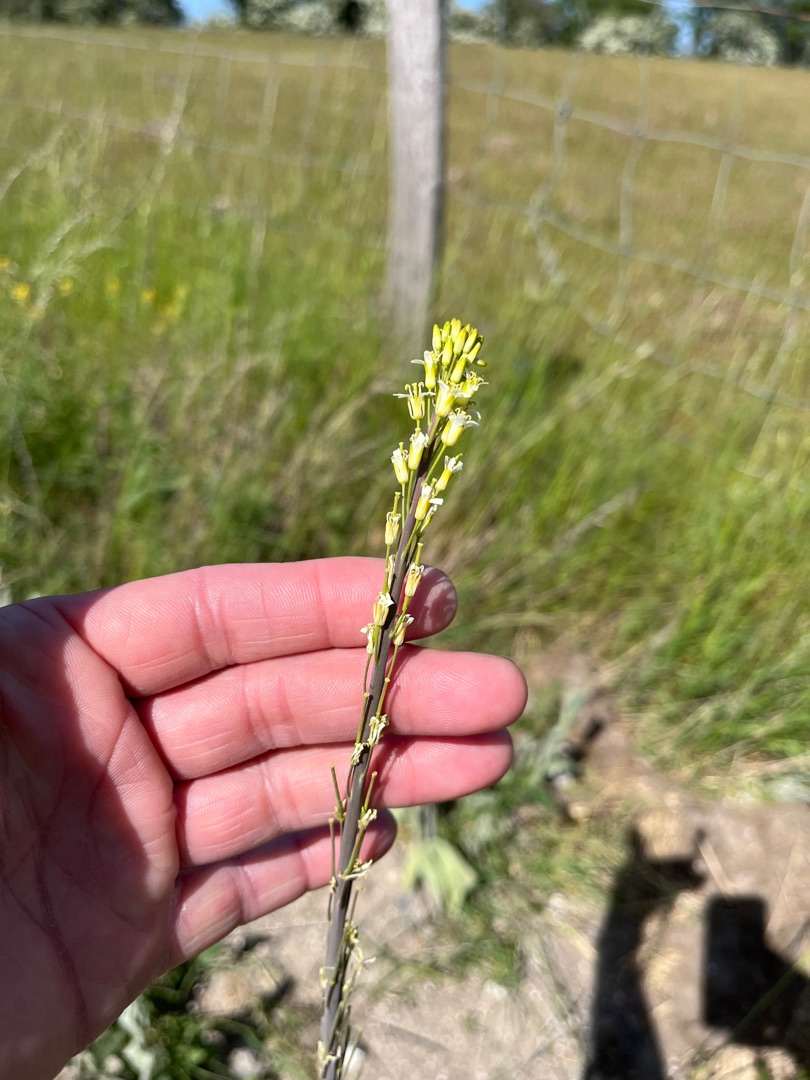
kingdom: Plantae
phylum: Tracheophyta
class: Magnoliopsida
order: Brassicales
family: Brassicaceae
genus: Turritis
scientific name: Turritis glabra
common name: Tårnurt
